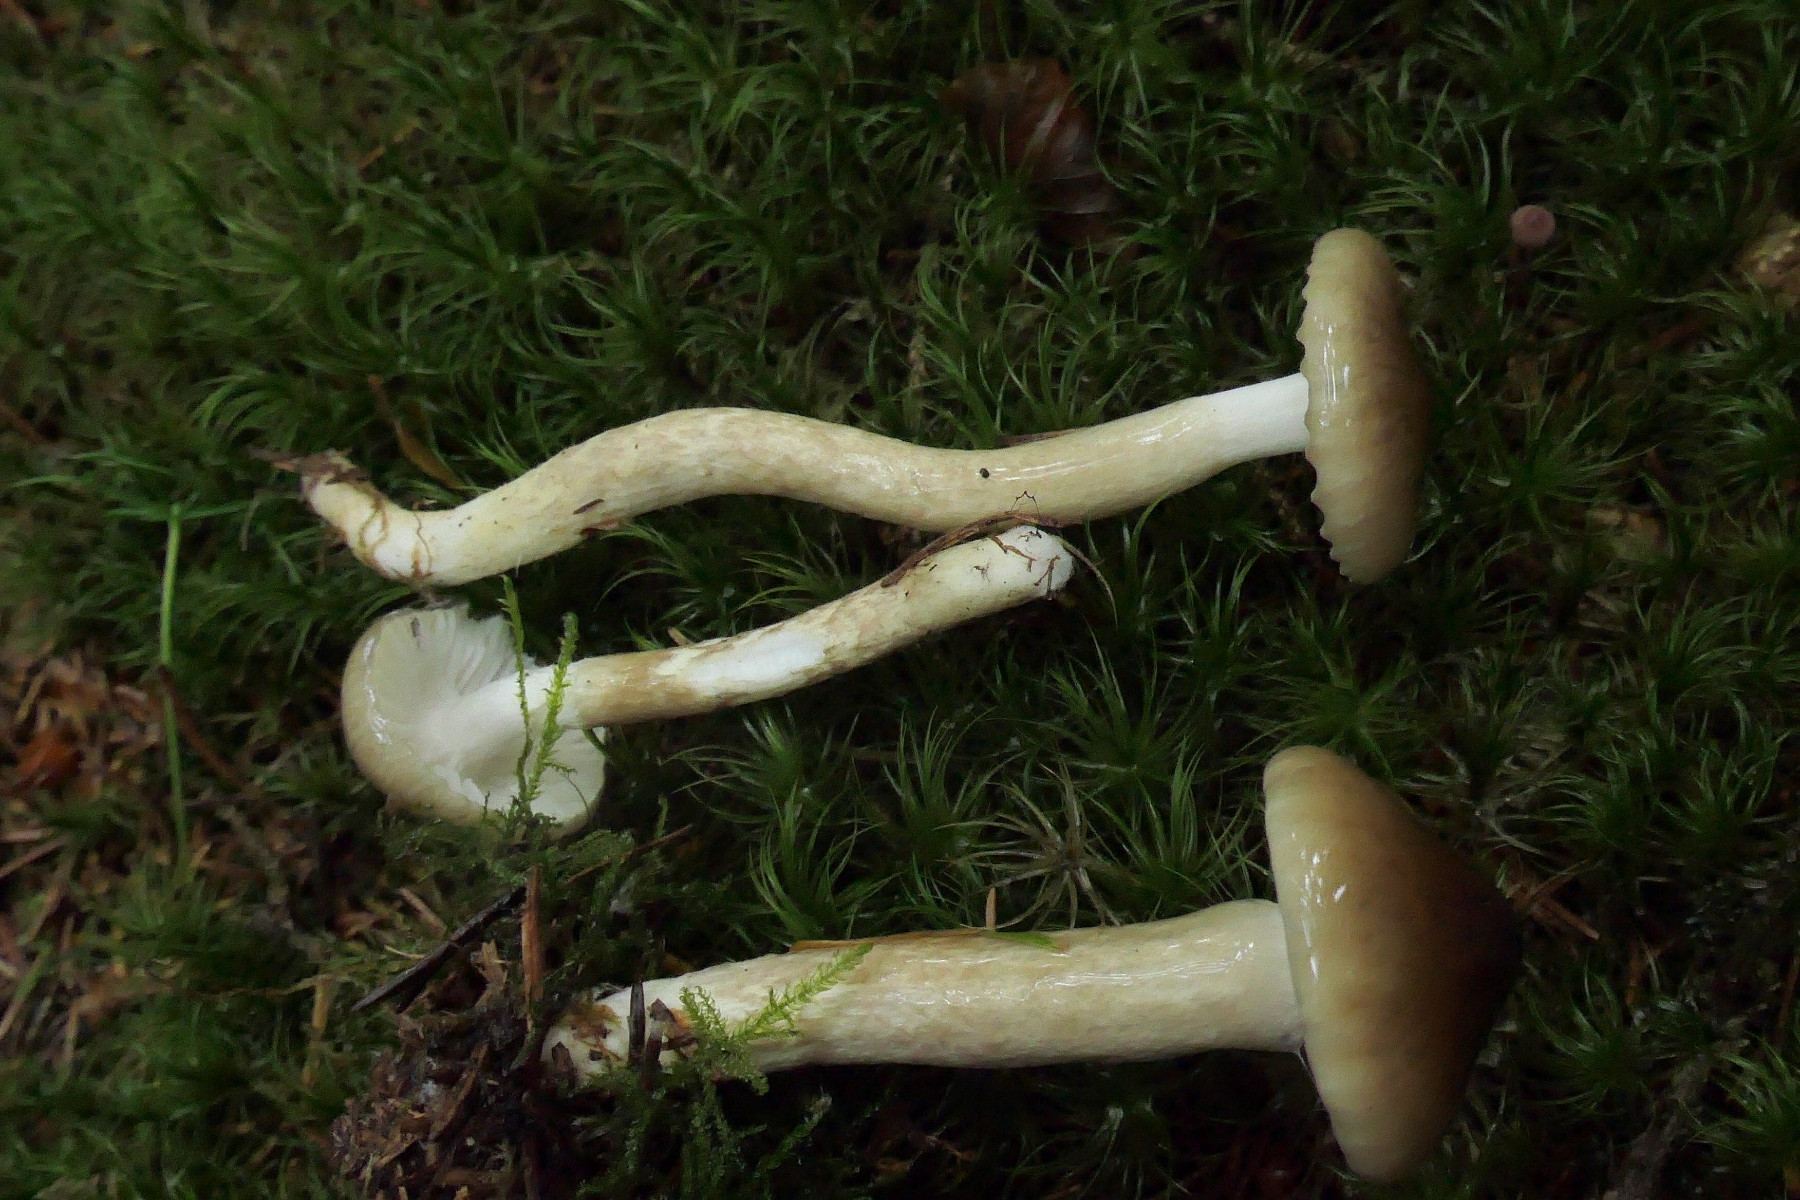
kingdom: Fungi
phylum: Basidiomycota
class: Agaricomycetes
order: Agaricales
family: Hygrophoraceae
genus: Hygrophorus
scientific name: Hygrophorus olivaceoalbus
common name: hvidbrun sneglehat
